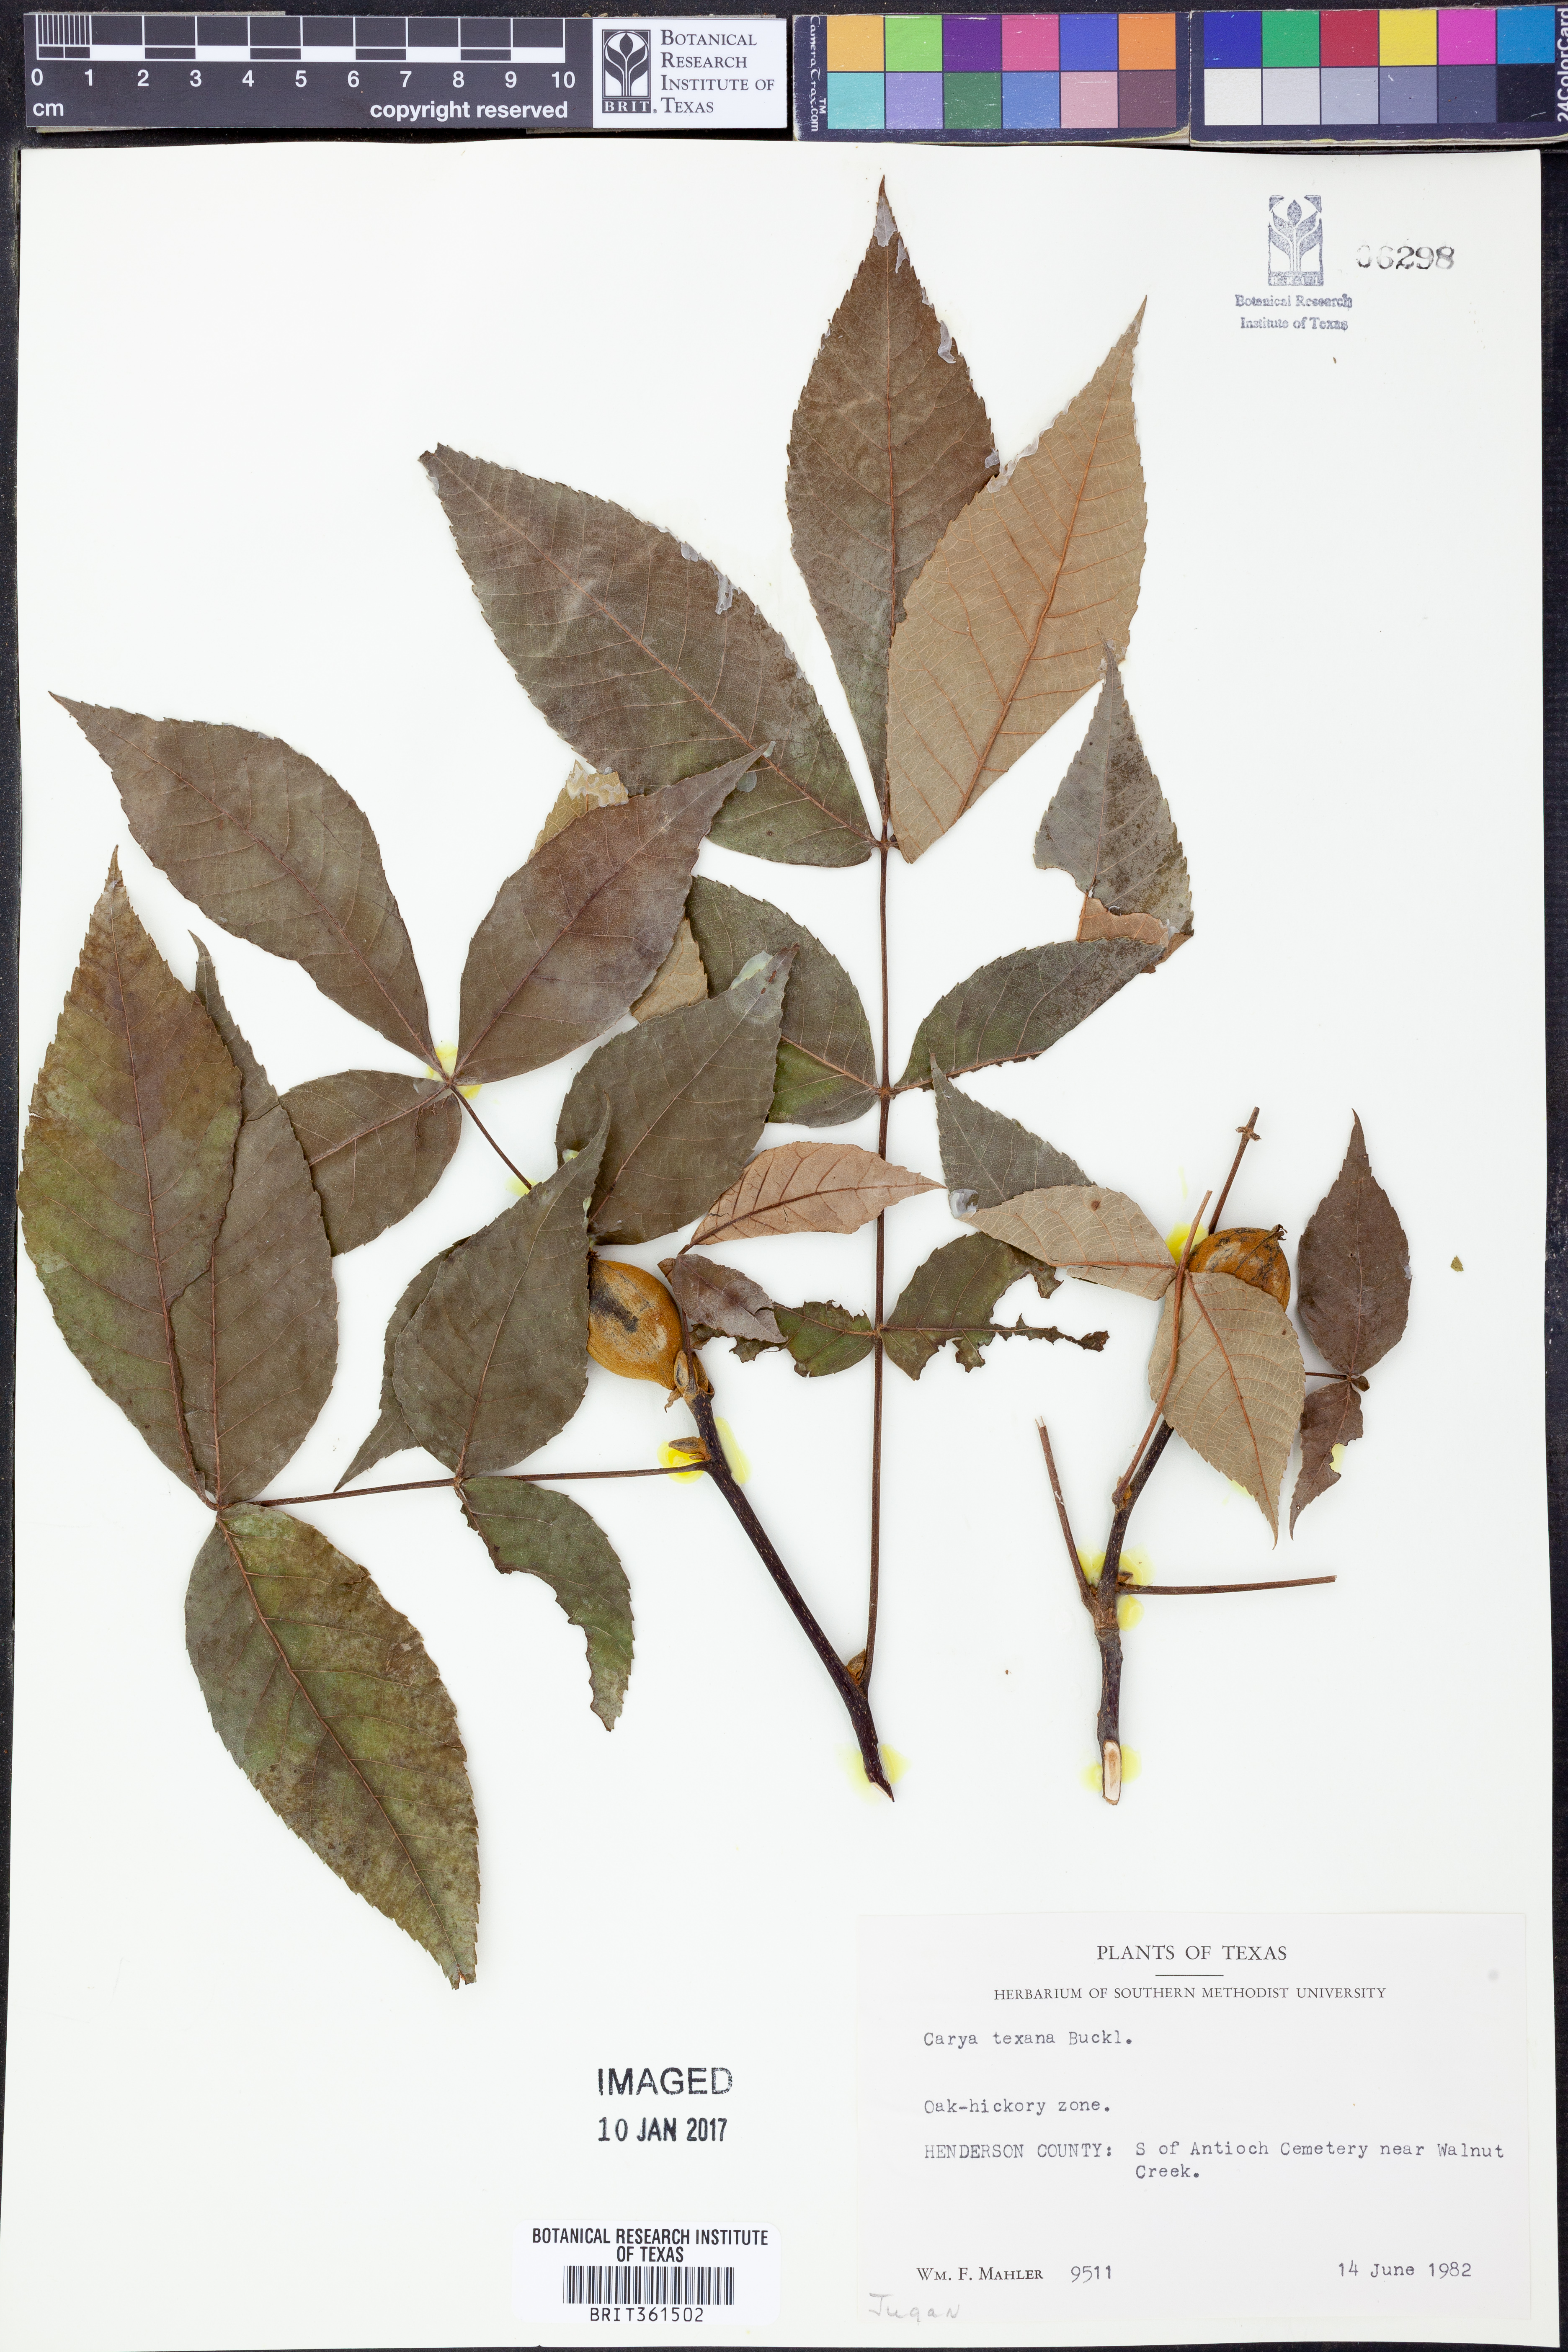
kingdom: Plantae
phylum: Tracheophyta
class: Magnoliopsida
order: Fagales
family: Juglandaceae
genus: Carya
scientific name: Carya texana
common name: Black hickory
